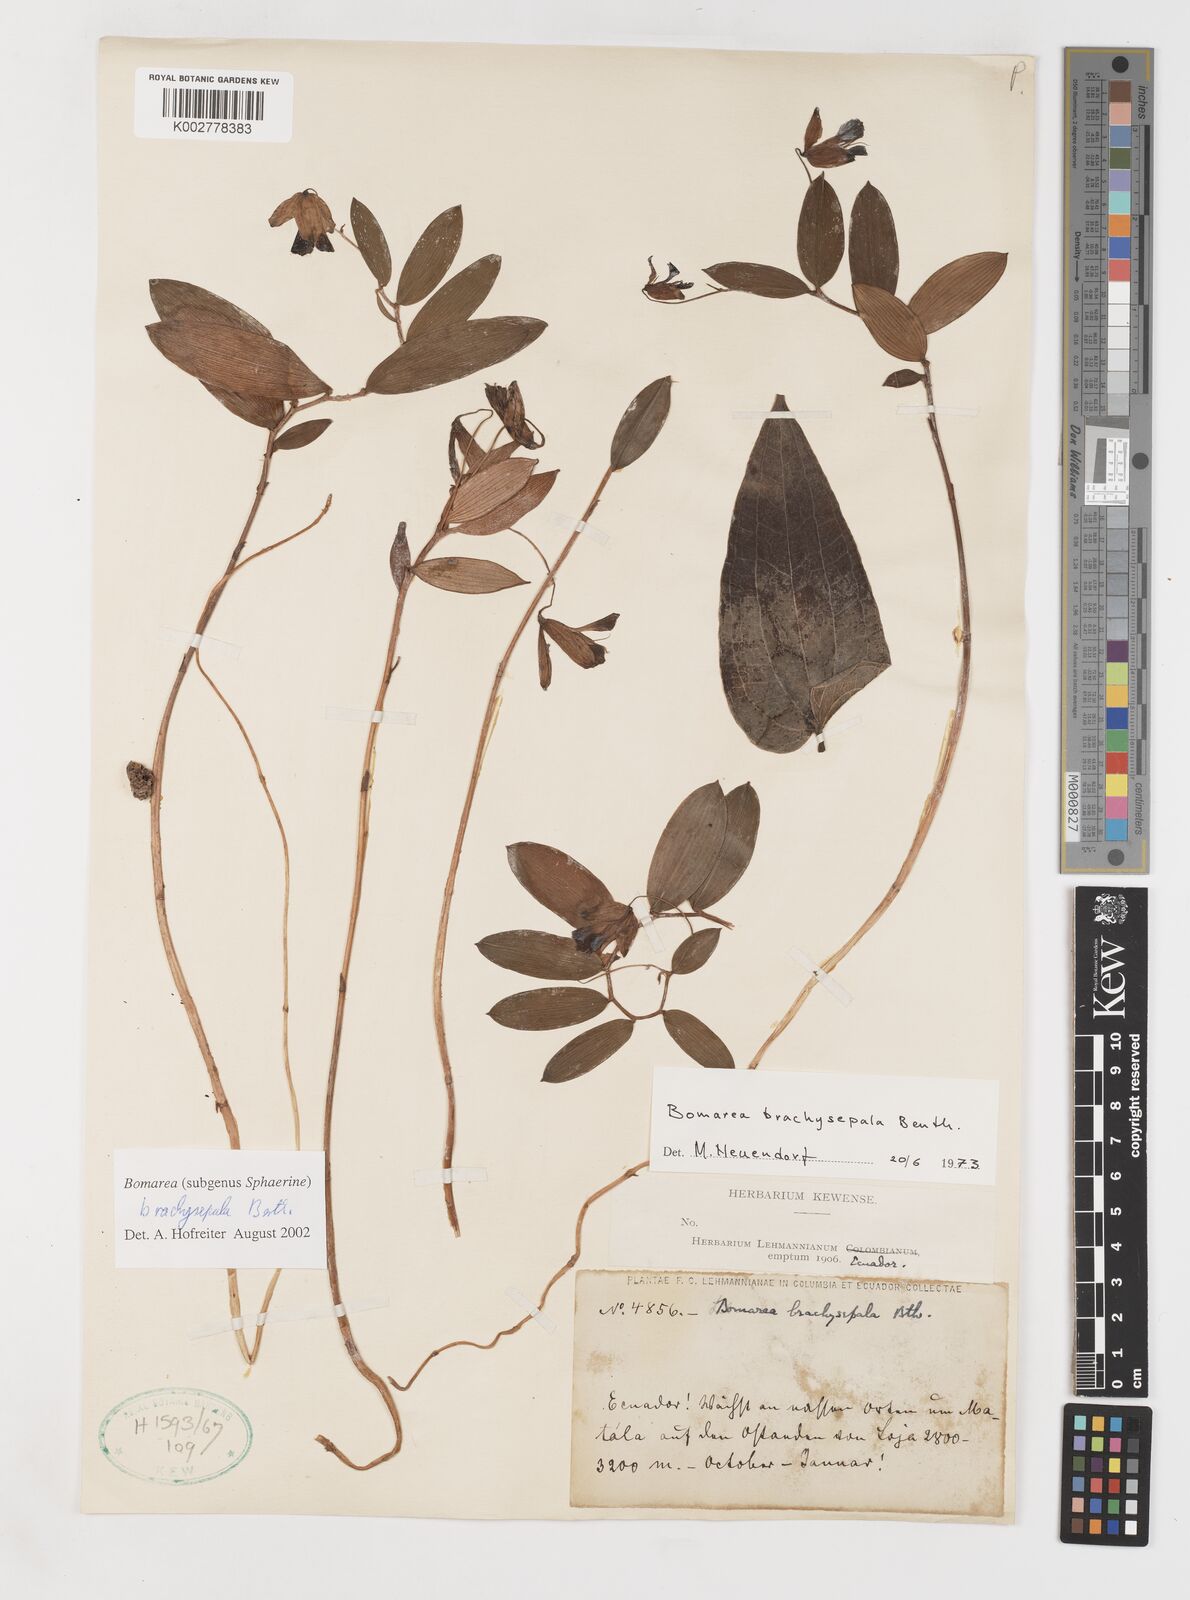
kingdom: Plantae
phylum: Tracheophyta
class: Liliopsida
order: Liliales
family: Alstroemeriaceae
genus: Bomarea
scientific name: Bomarea brachysepala
